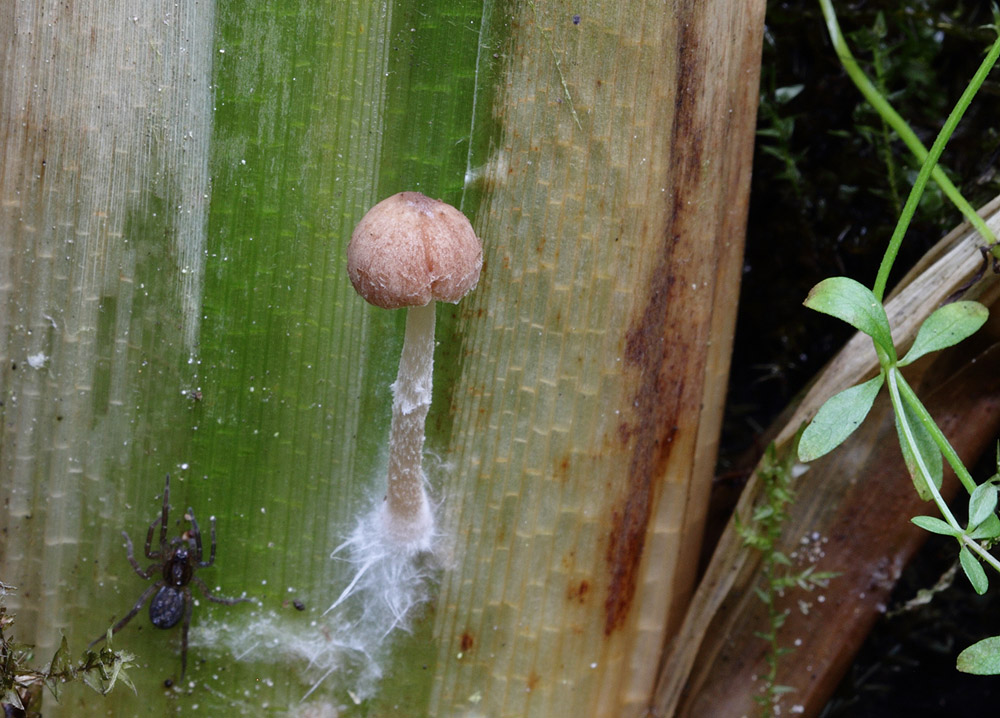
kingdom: Fungi
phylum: Basidiomycota
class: Agaricomycetes
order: Agaricales
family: Psathyrellaceae
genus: Candolleomyces
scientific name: Candolleomyces typhae
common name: dunhammer-mørkhat
